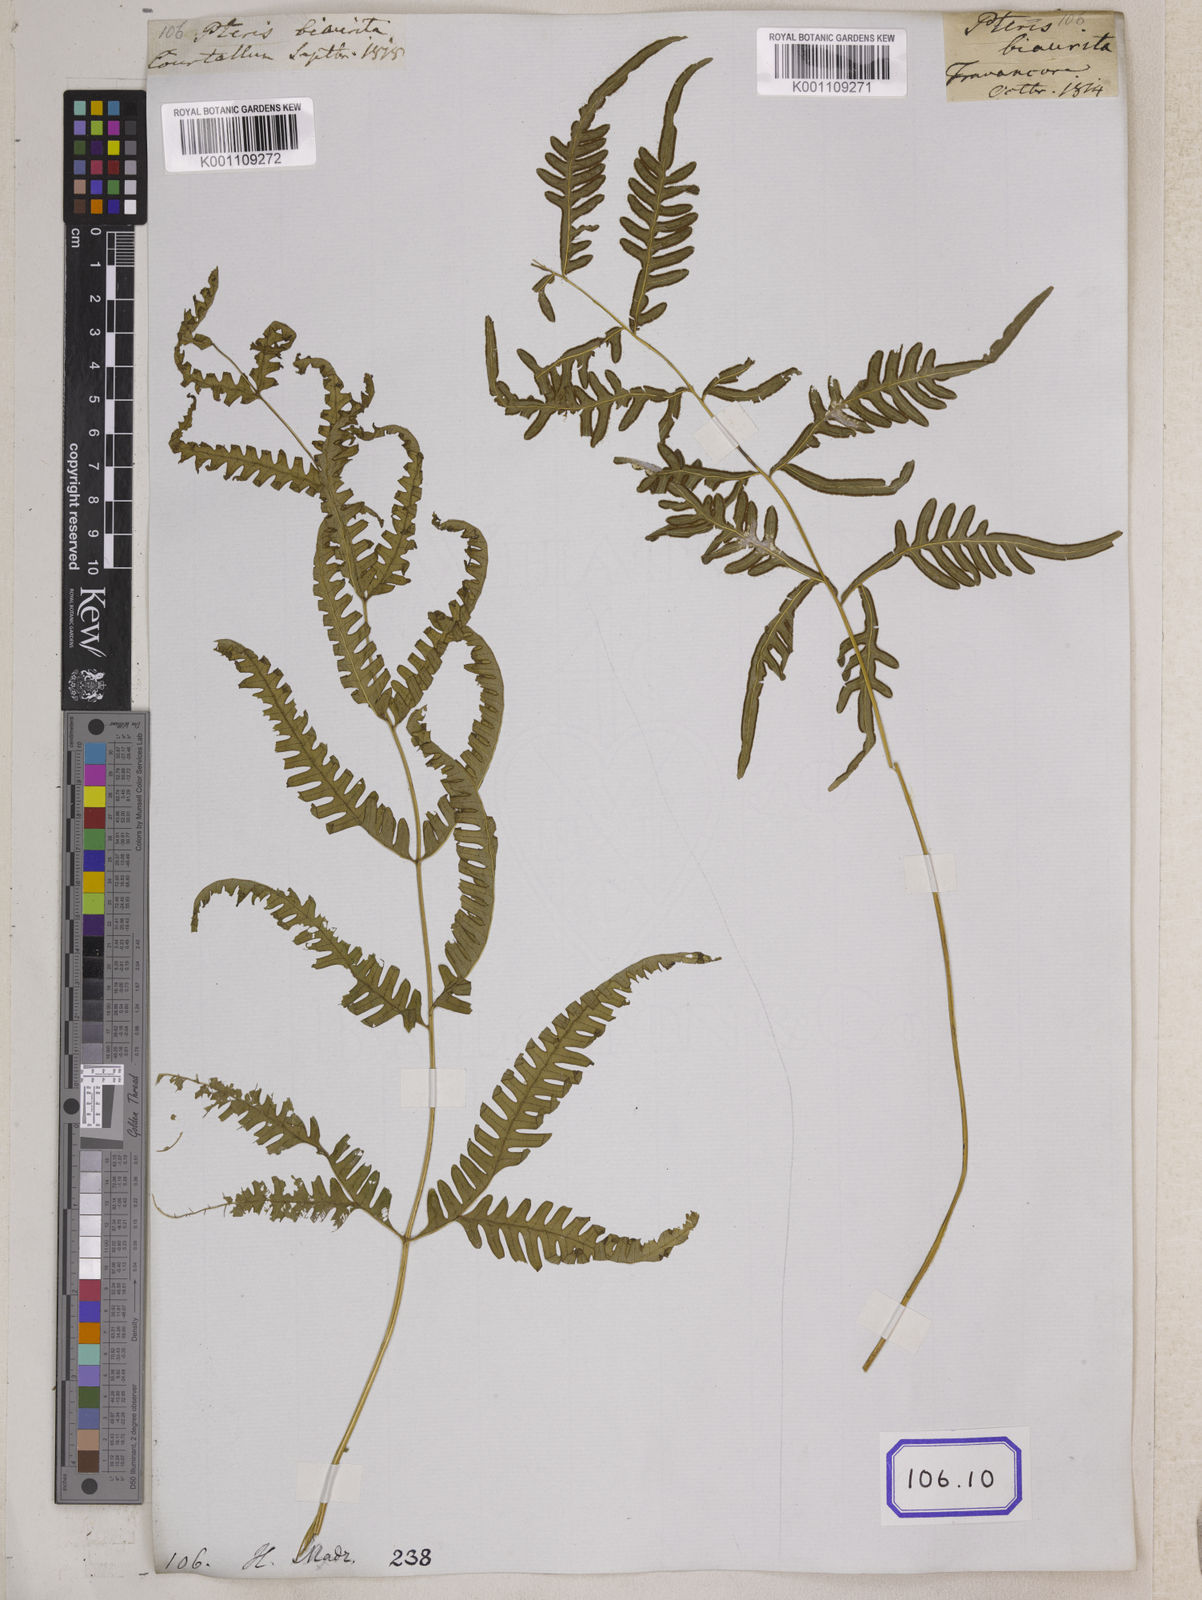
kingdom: Plantae
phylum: Tracheophyta
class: Polypodiopsida
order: Polypodiales
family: Pteridaceae
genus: Pteris
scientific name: Pteris linearis
